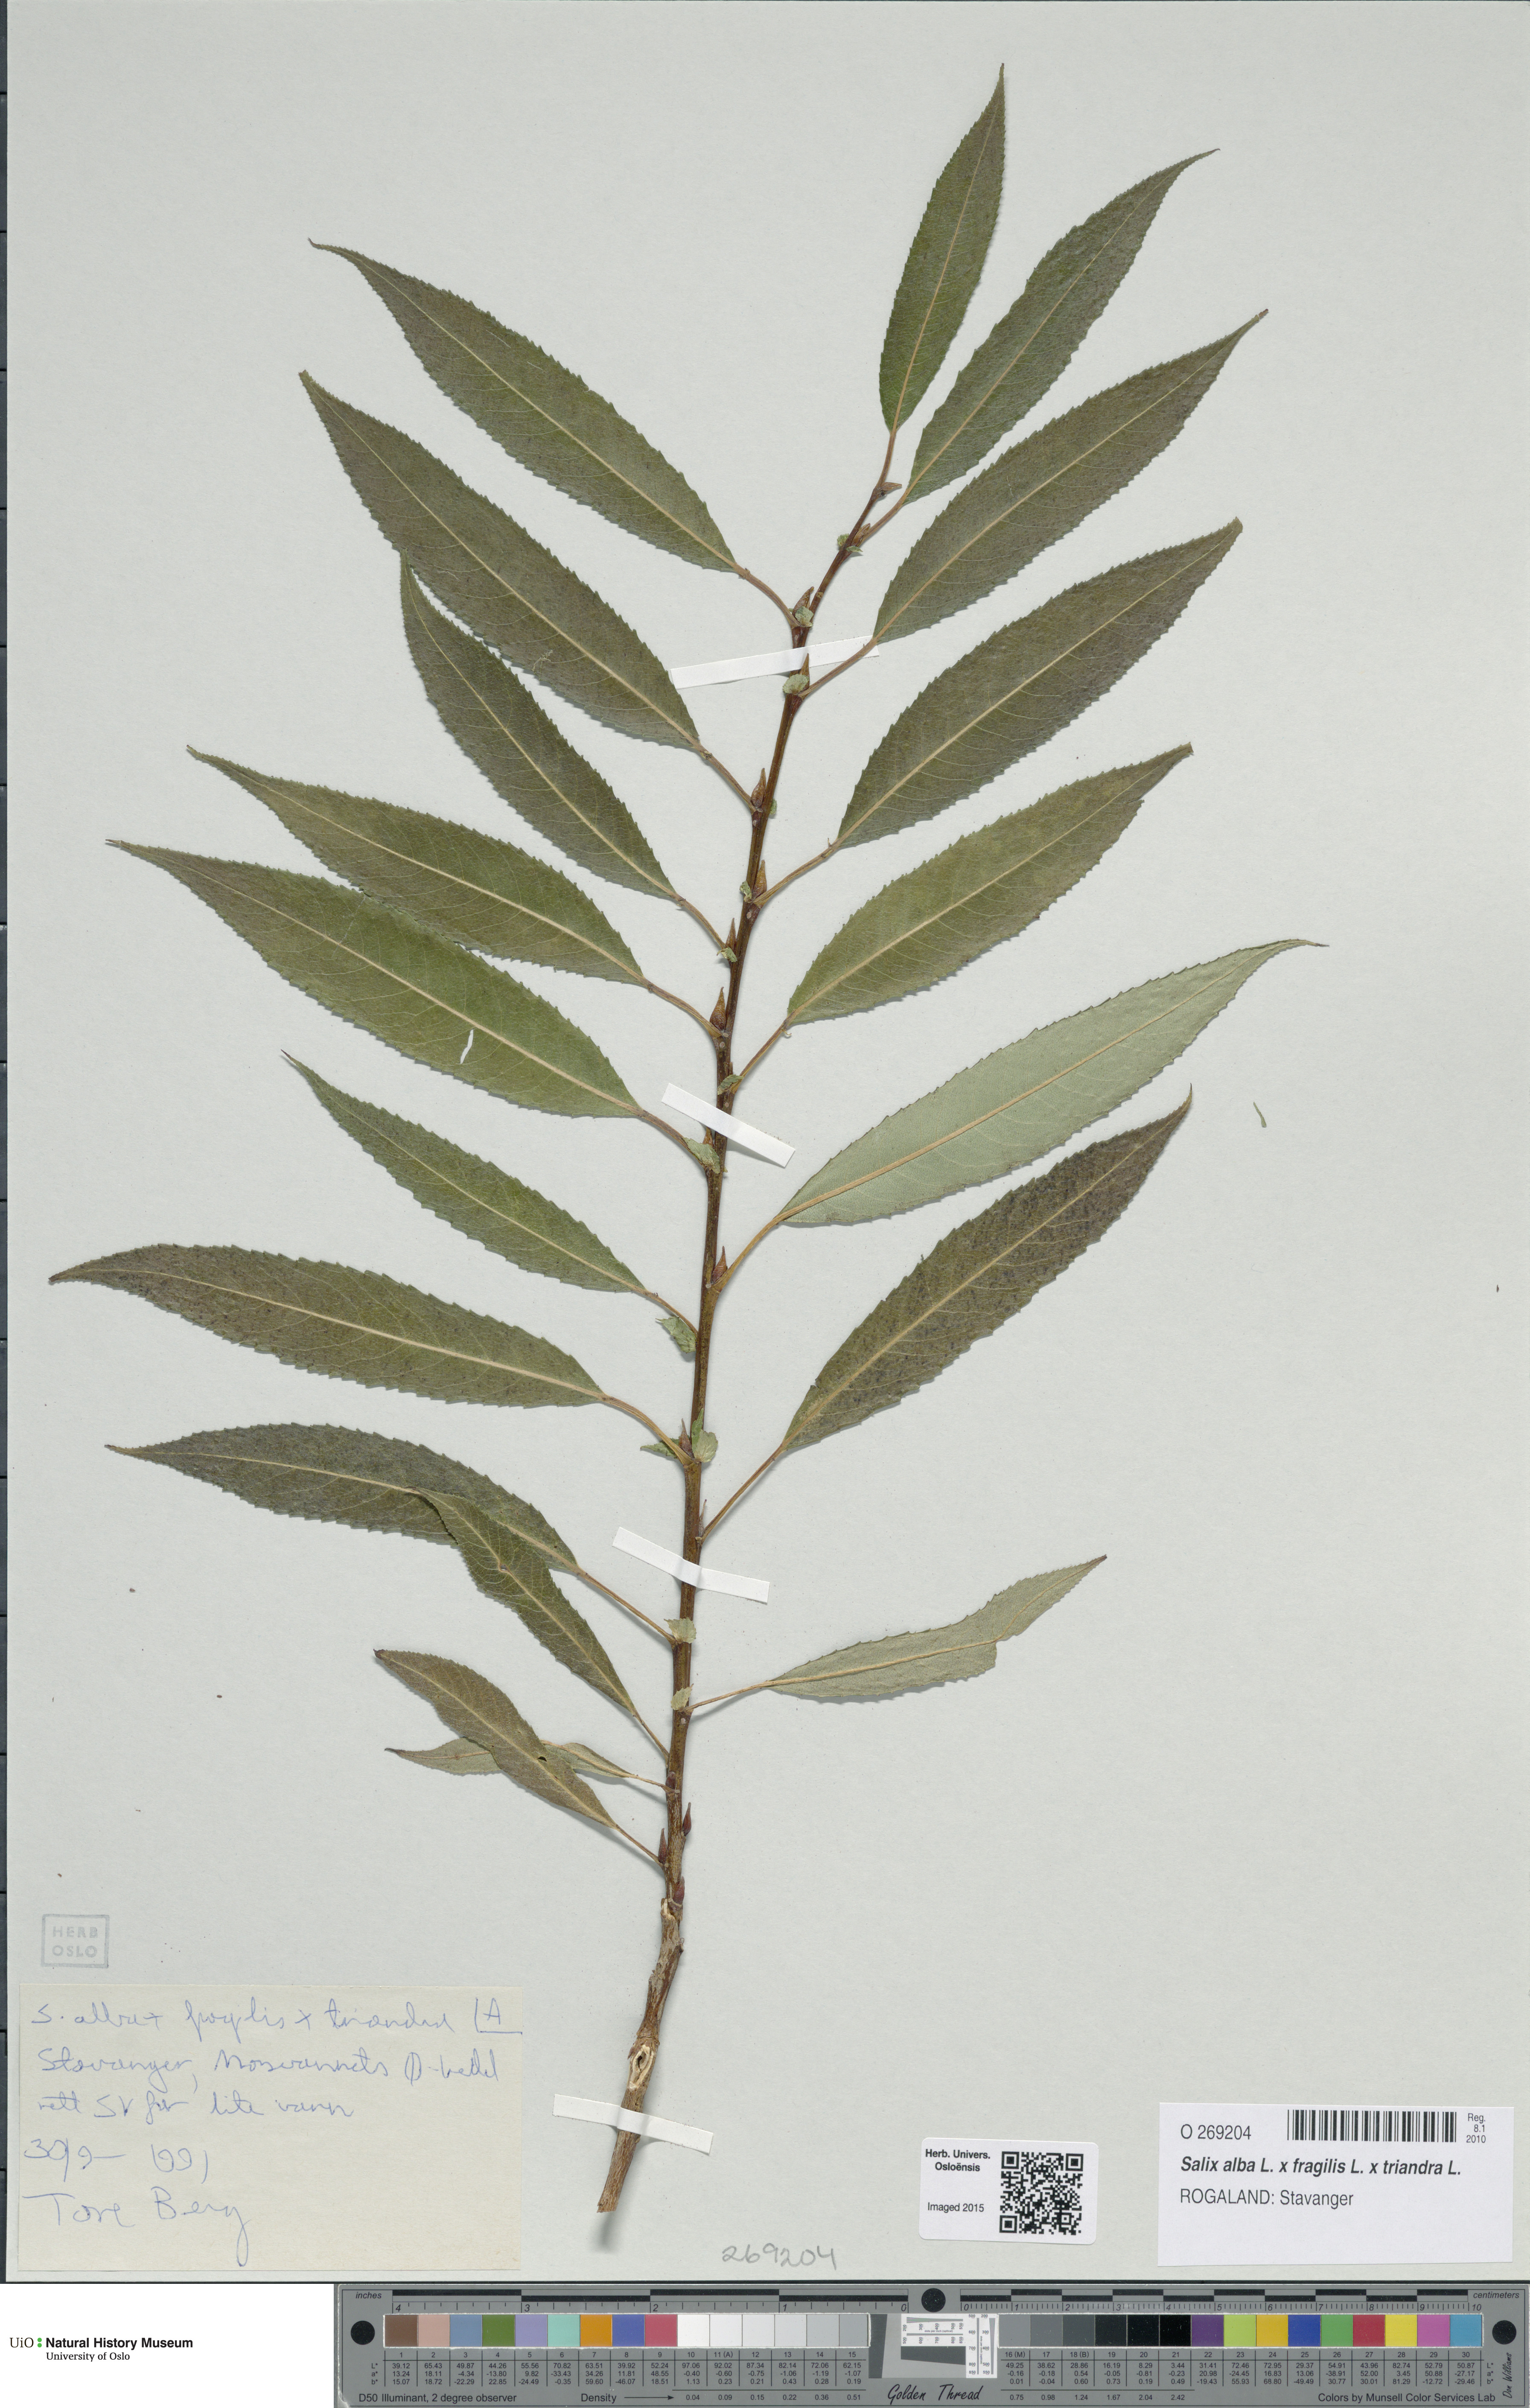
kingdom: Plantae
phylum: Tracheophyta
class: Magnoliopsida
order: Malpighiales
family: Salicaceae
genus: Salix
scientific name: Salix
